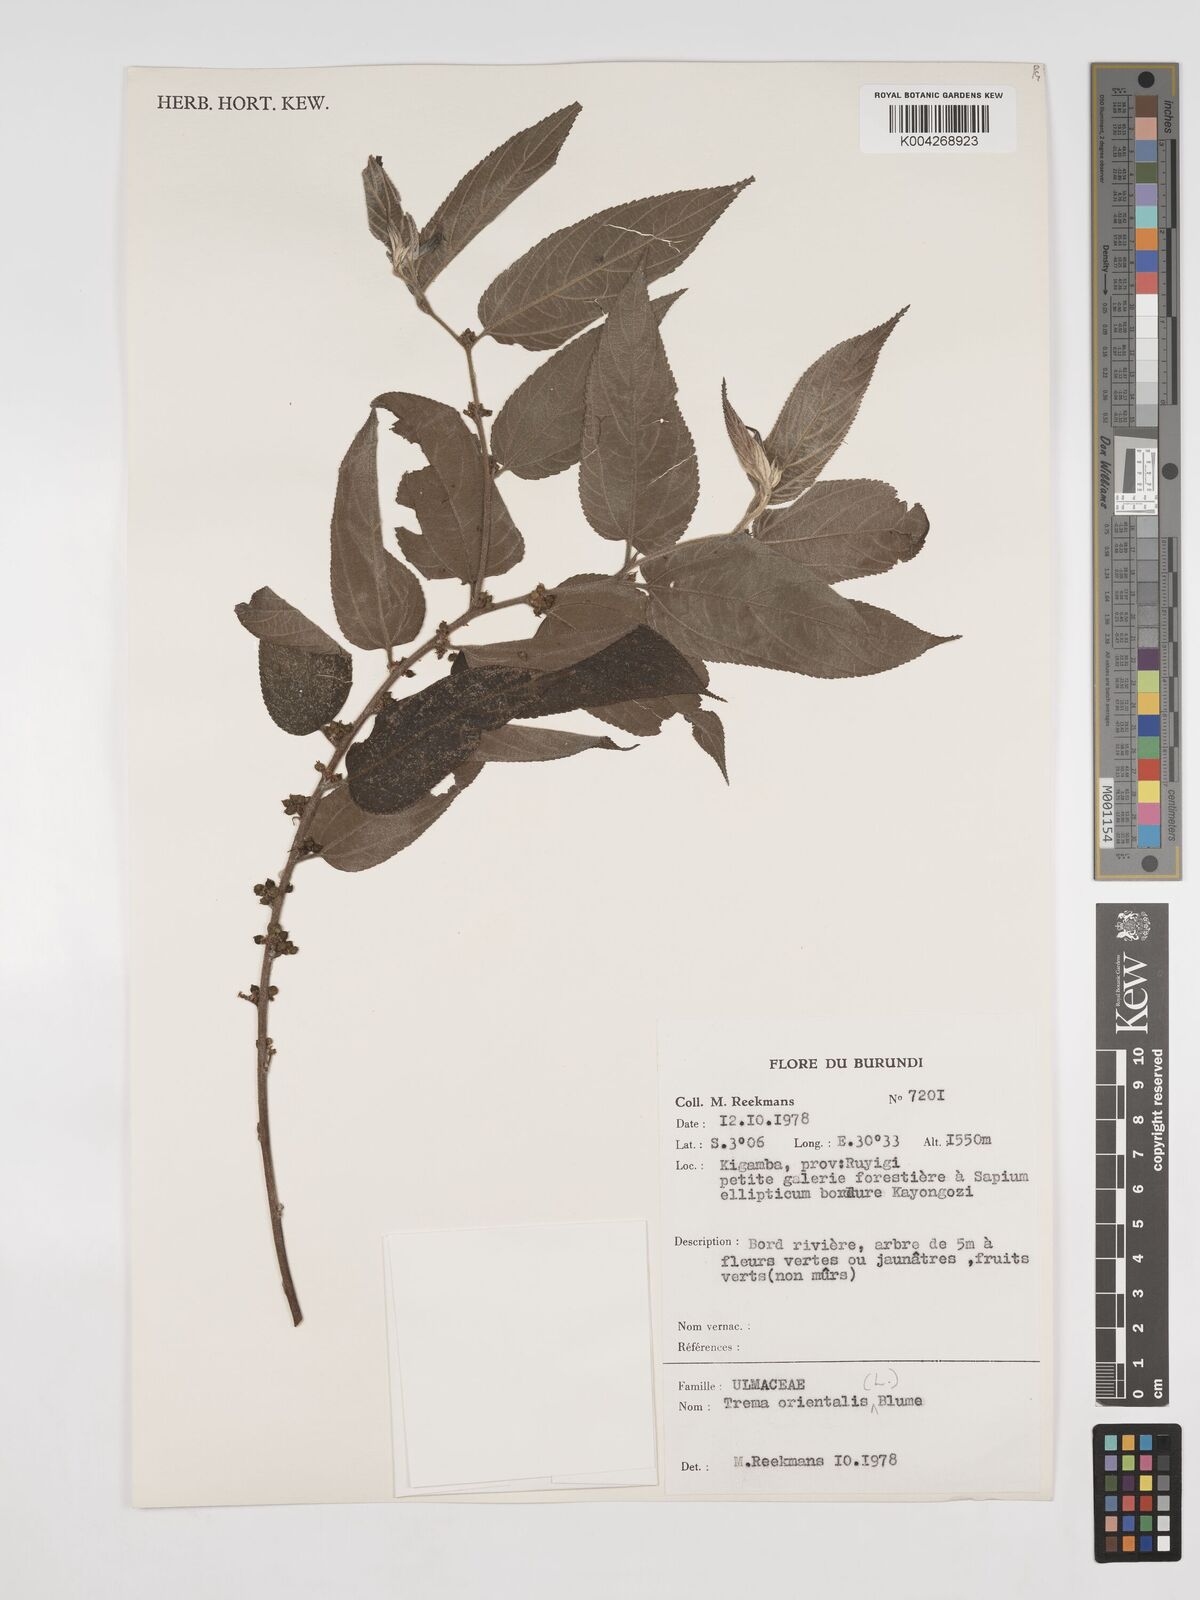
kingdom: Plantae
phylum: Tracheophyta
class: Magnoliopsida
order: Rosales
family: Cannabaceae
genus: Trema
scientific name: Trema orientale
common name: Indian charcoal tree
